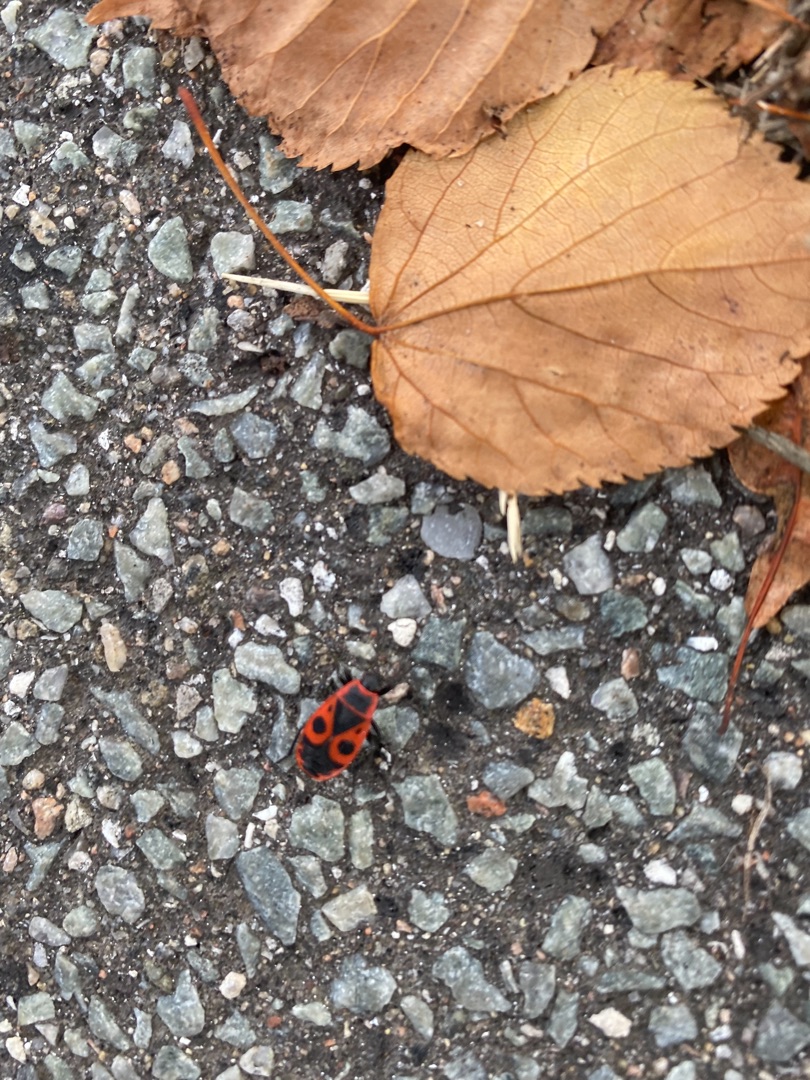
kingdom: Animalia
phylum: Arthropoda
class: Insecta
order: Hemiptera
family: Pyrrhocoridae
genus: Pyrrhocoris
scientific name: Pyrrhocoris apterus
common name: Ildtæge
